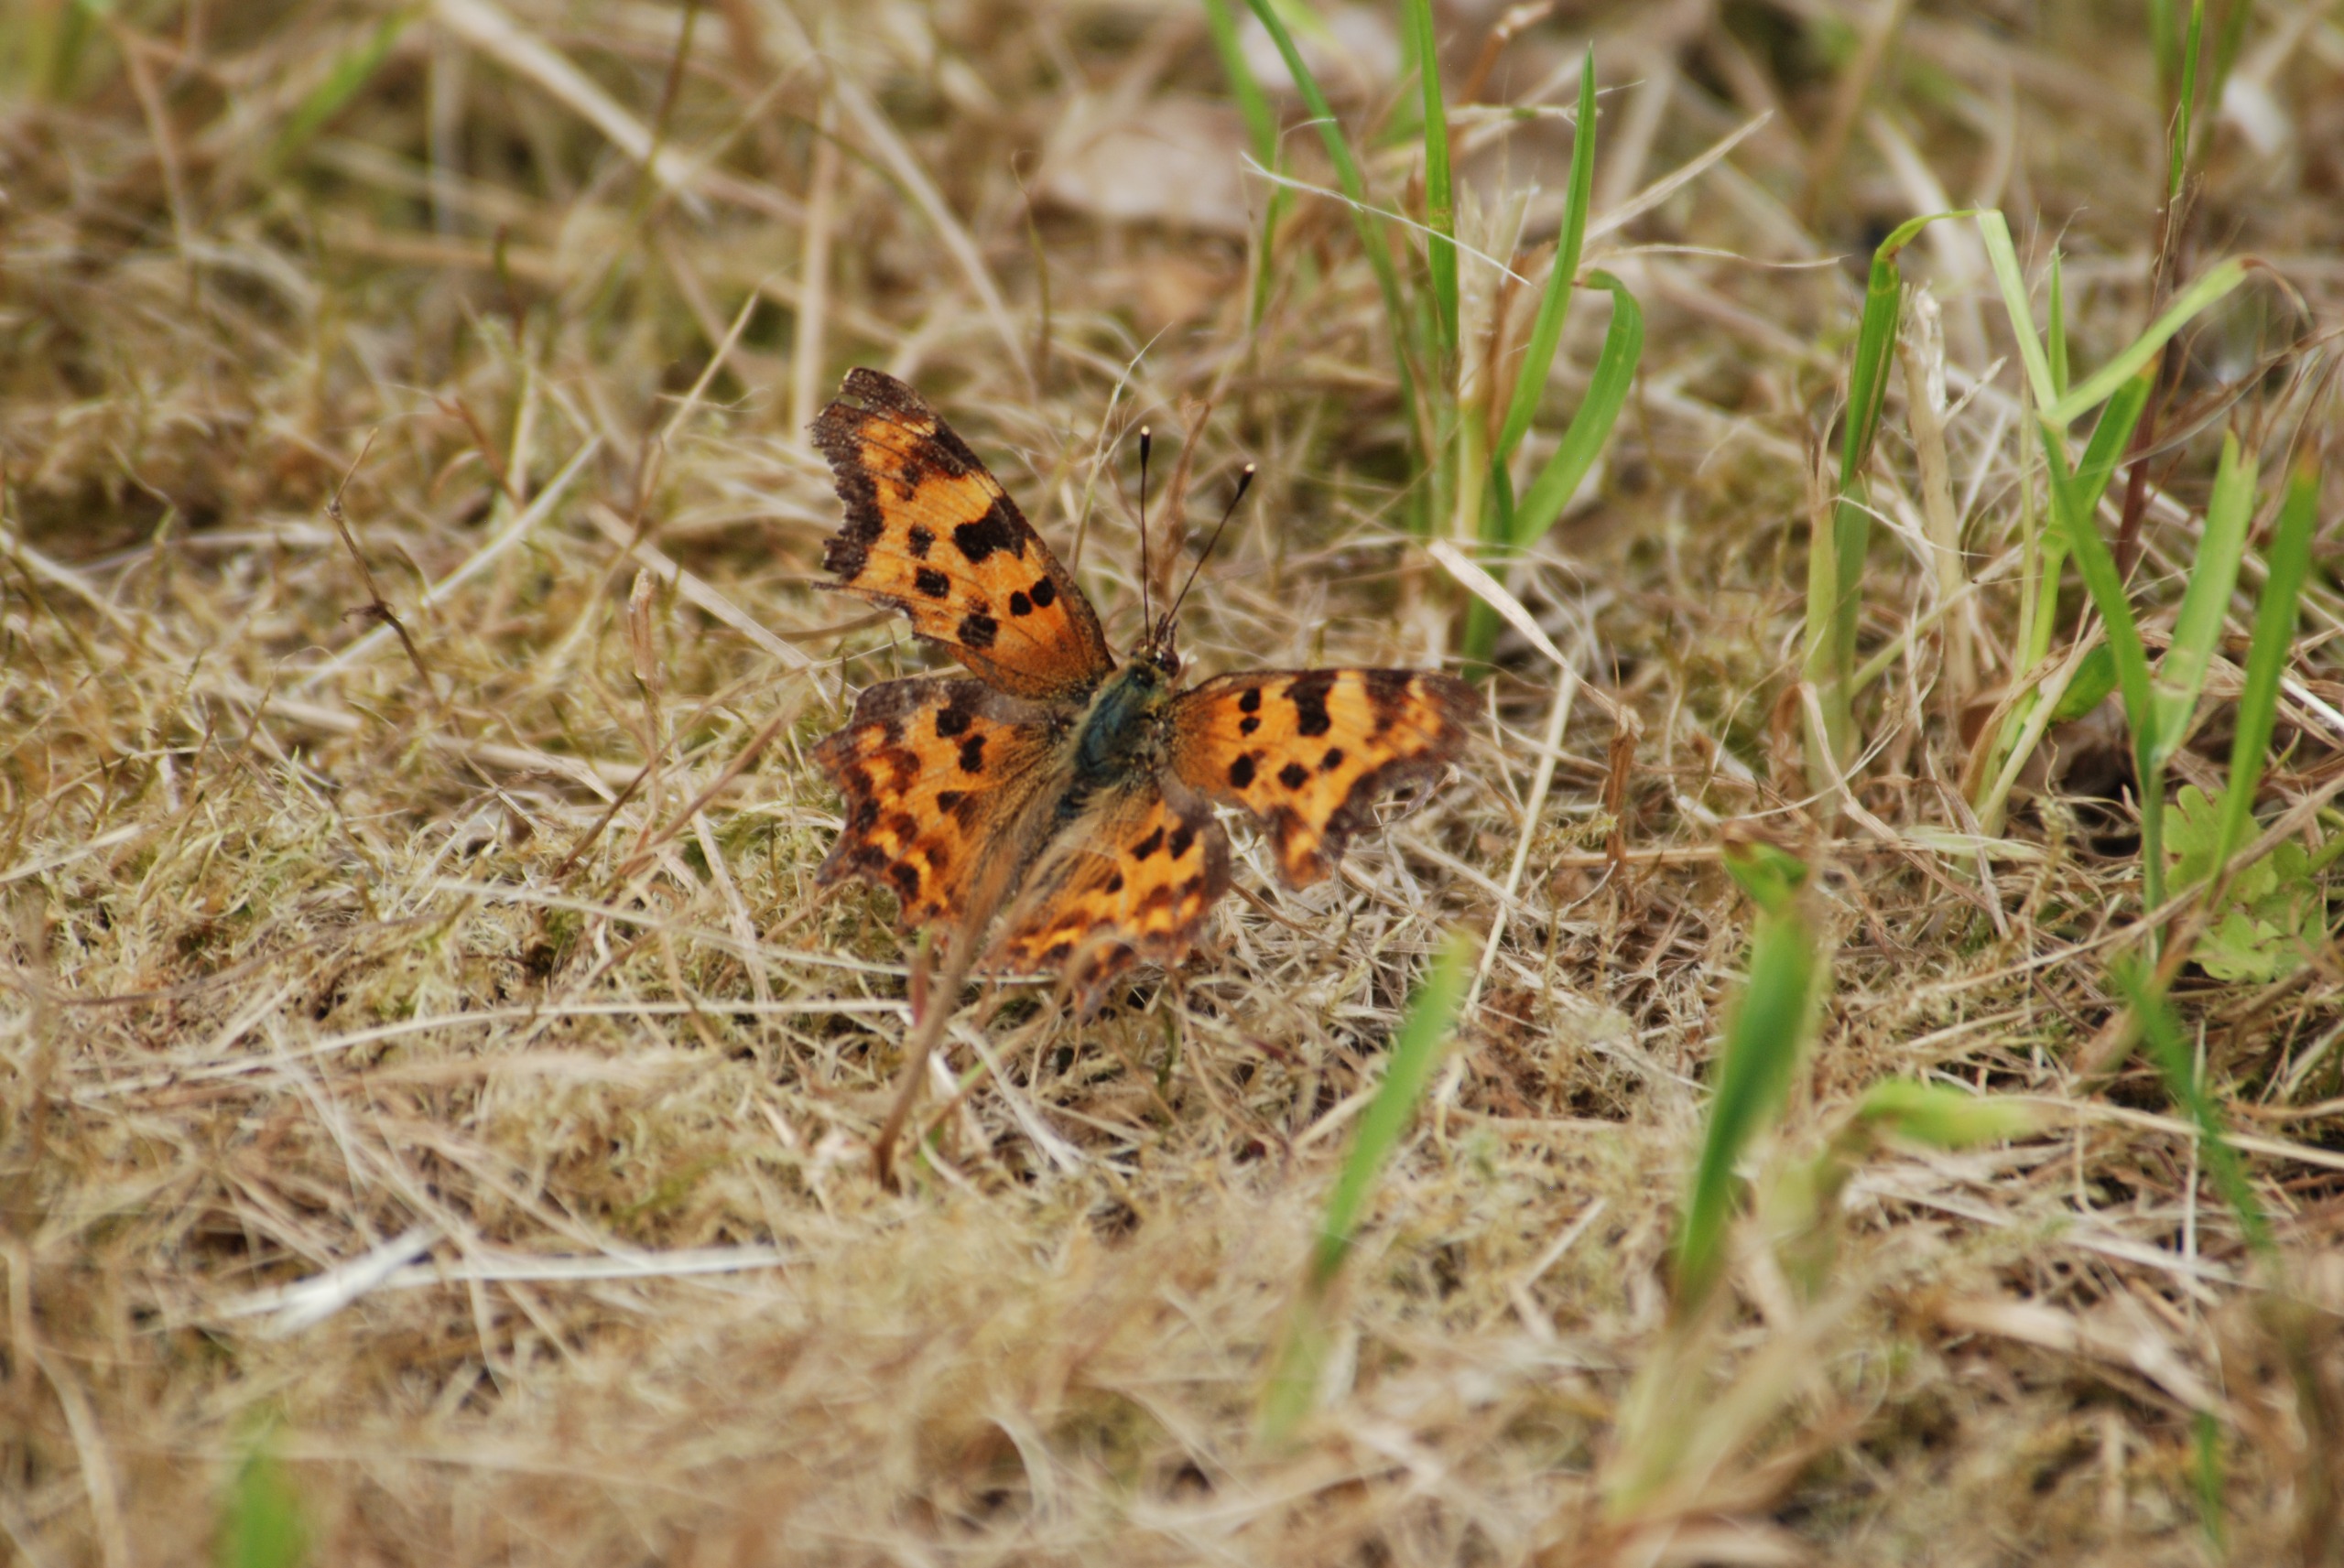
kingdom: Animalia
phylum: Arthropoda
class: Insecta
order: Lepidoptera
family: Nymphalidae
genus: Polygonia
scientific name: Polygonia c-album
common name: Det hvide C
